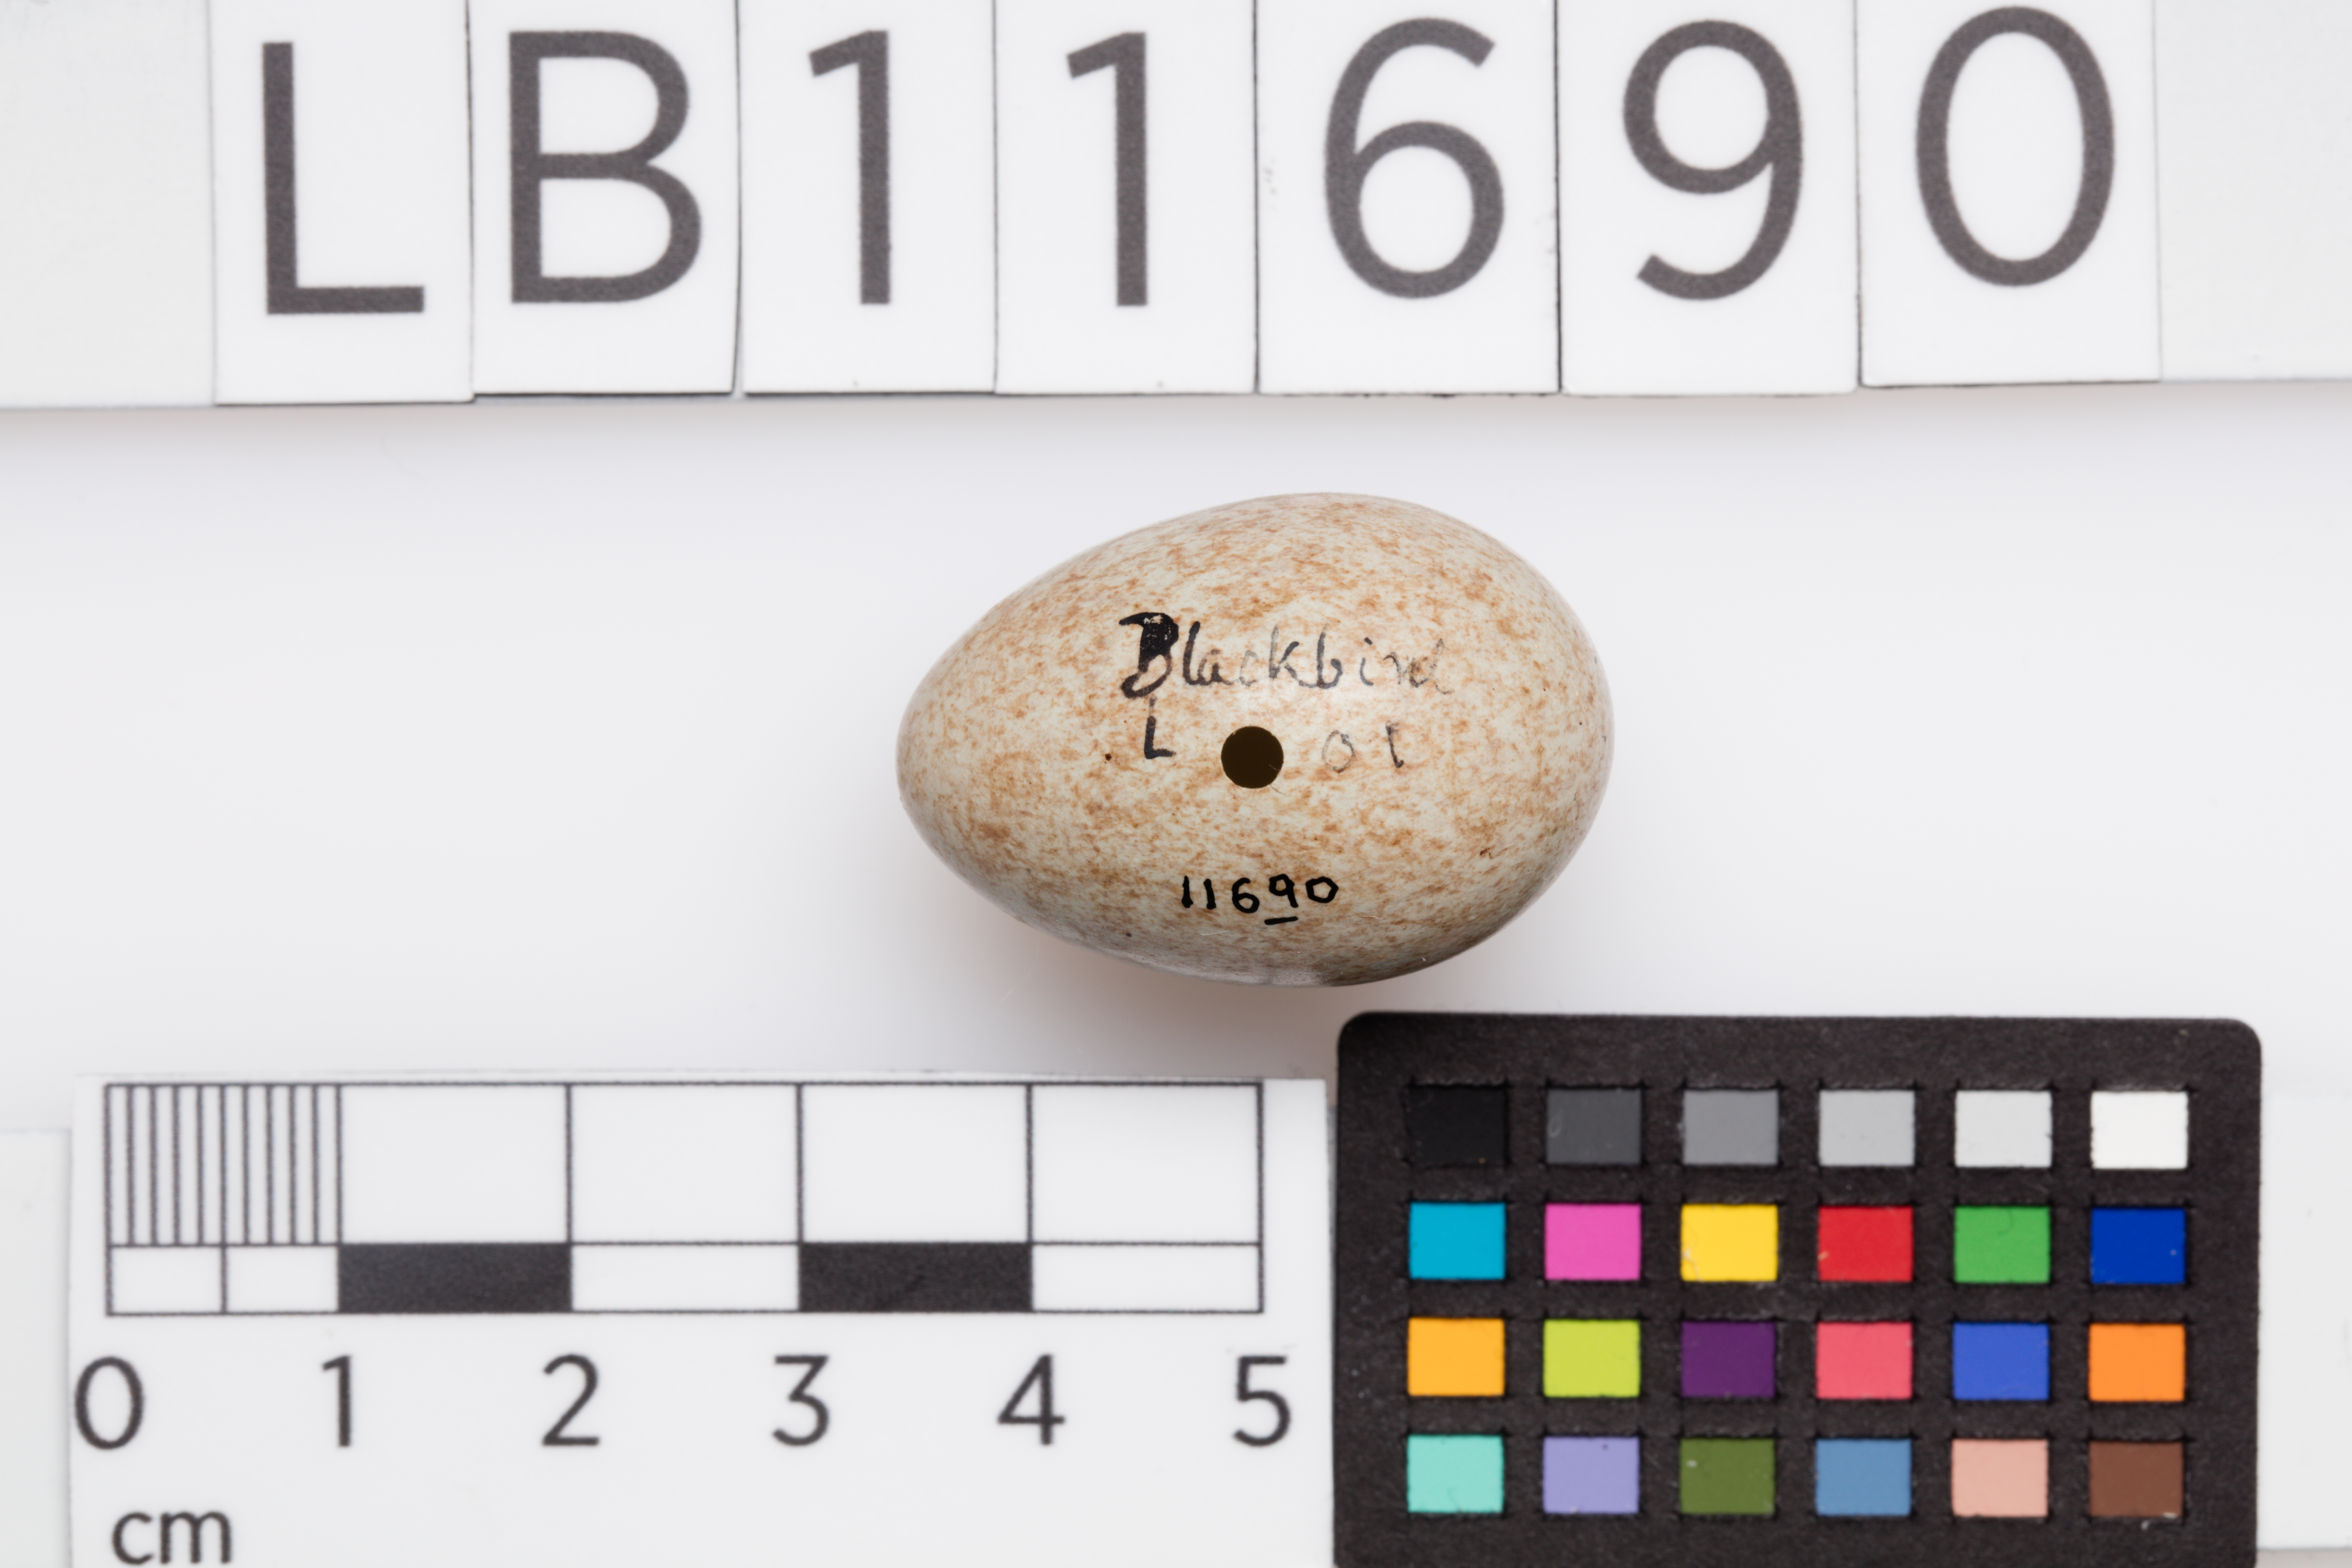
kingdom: Animalia
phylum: Chordata
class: Aves
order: Passeriformes
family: Turdidae
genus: Turdus
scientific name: Turdus merula
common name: Common blackbird
